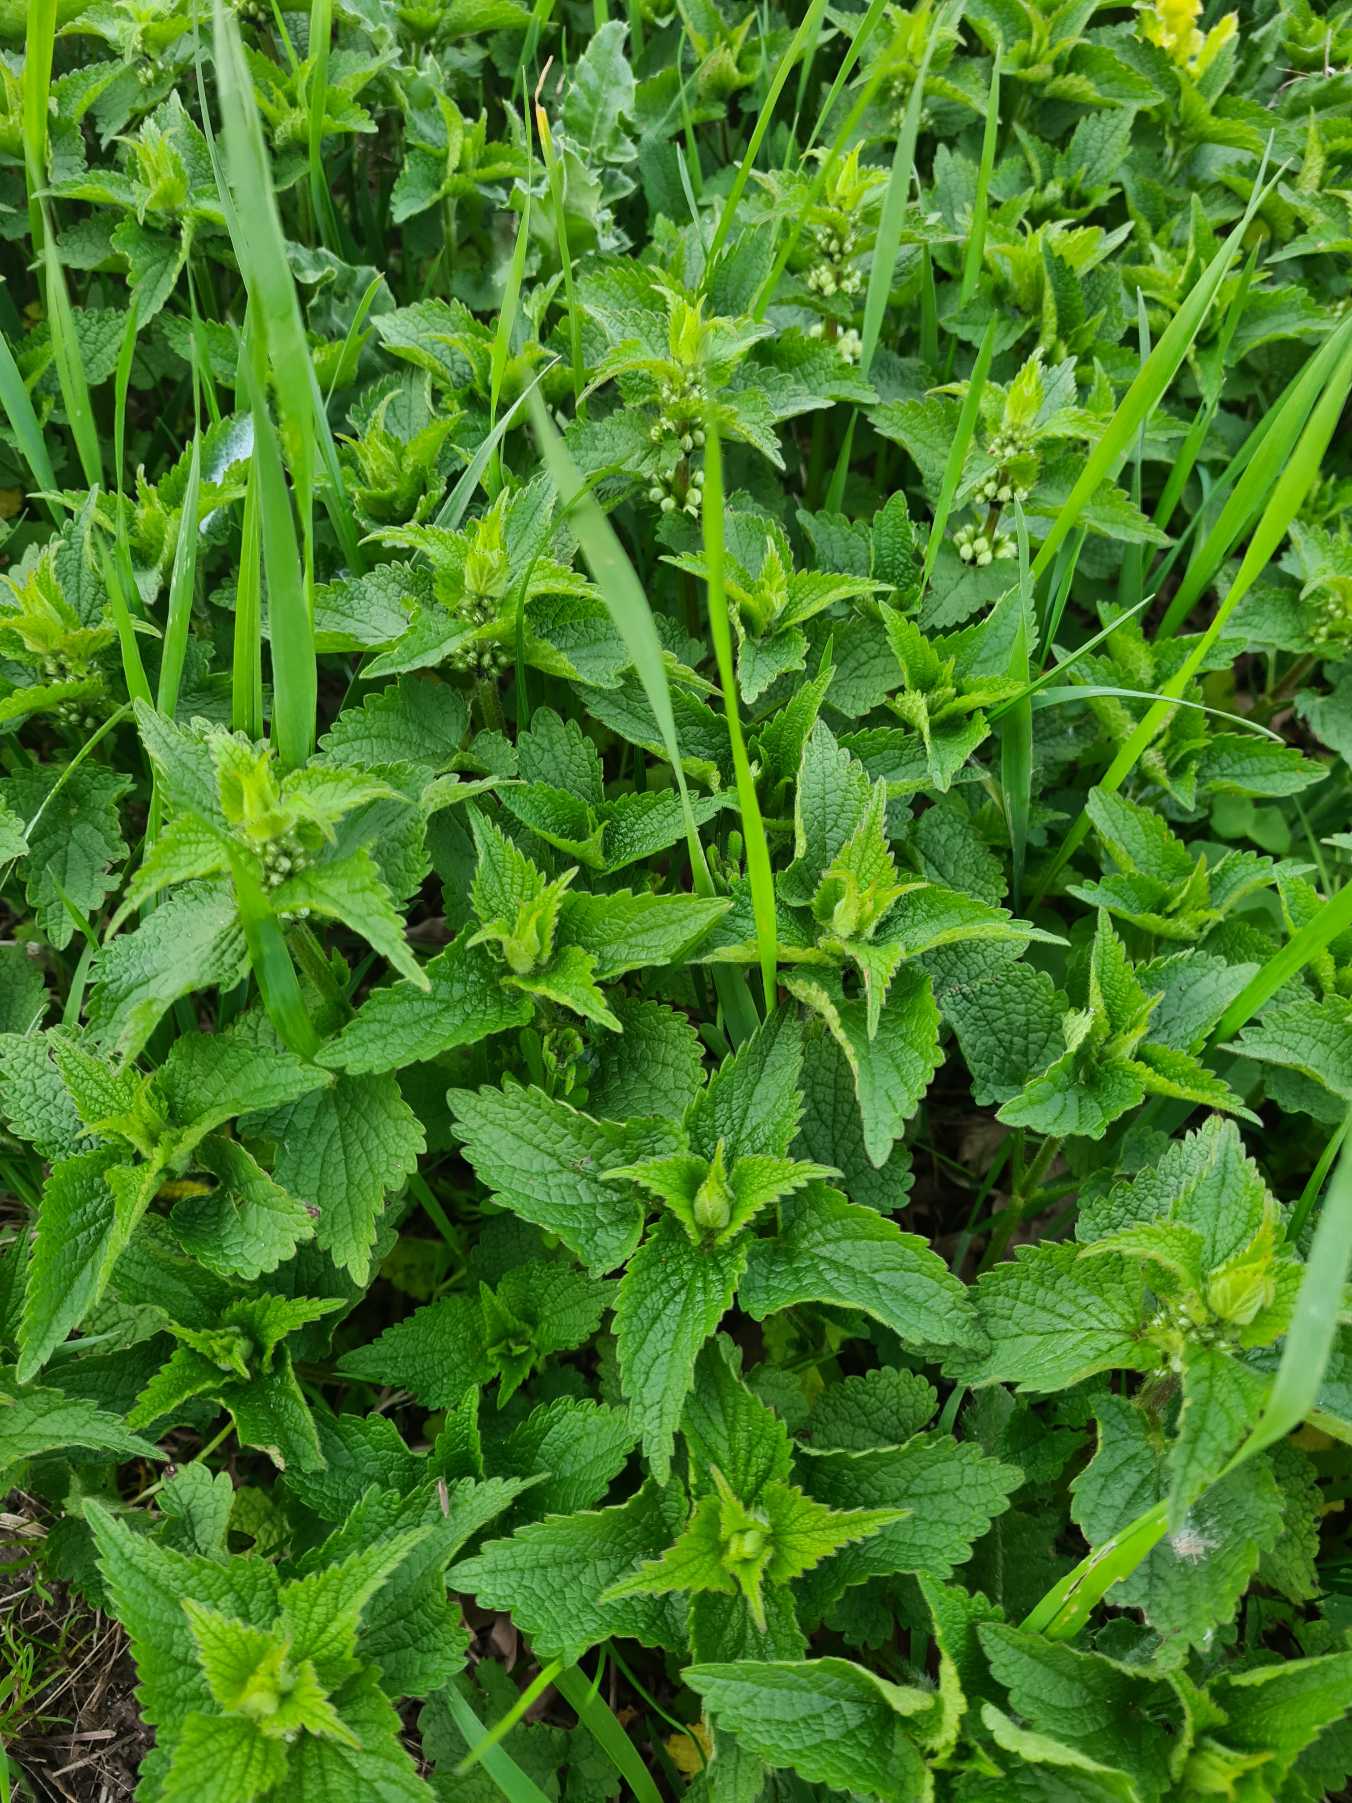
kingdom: Plantae
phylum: Tracheophyta
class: Magnoliopsida
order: Lamiales
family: Lamiaceae
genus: Lamium
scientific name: Lamium album
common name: Døvnælde
